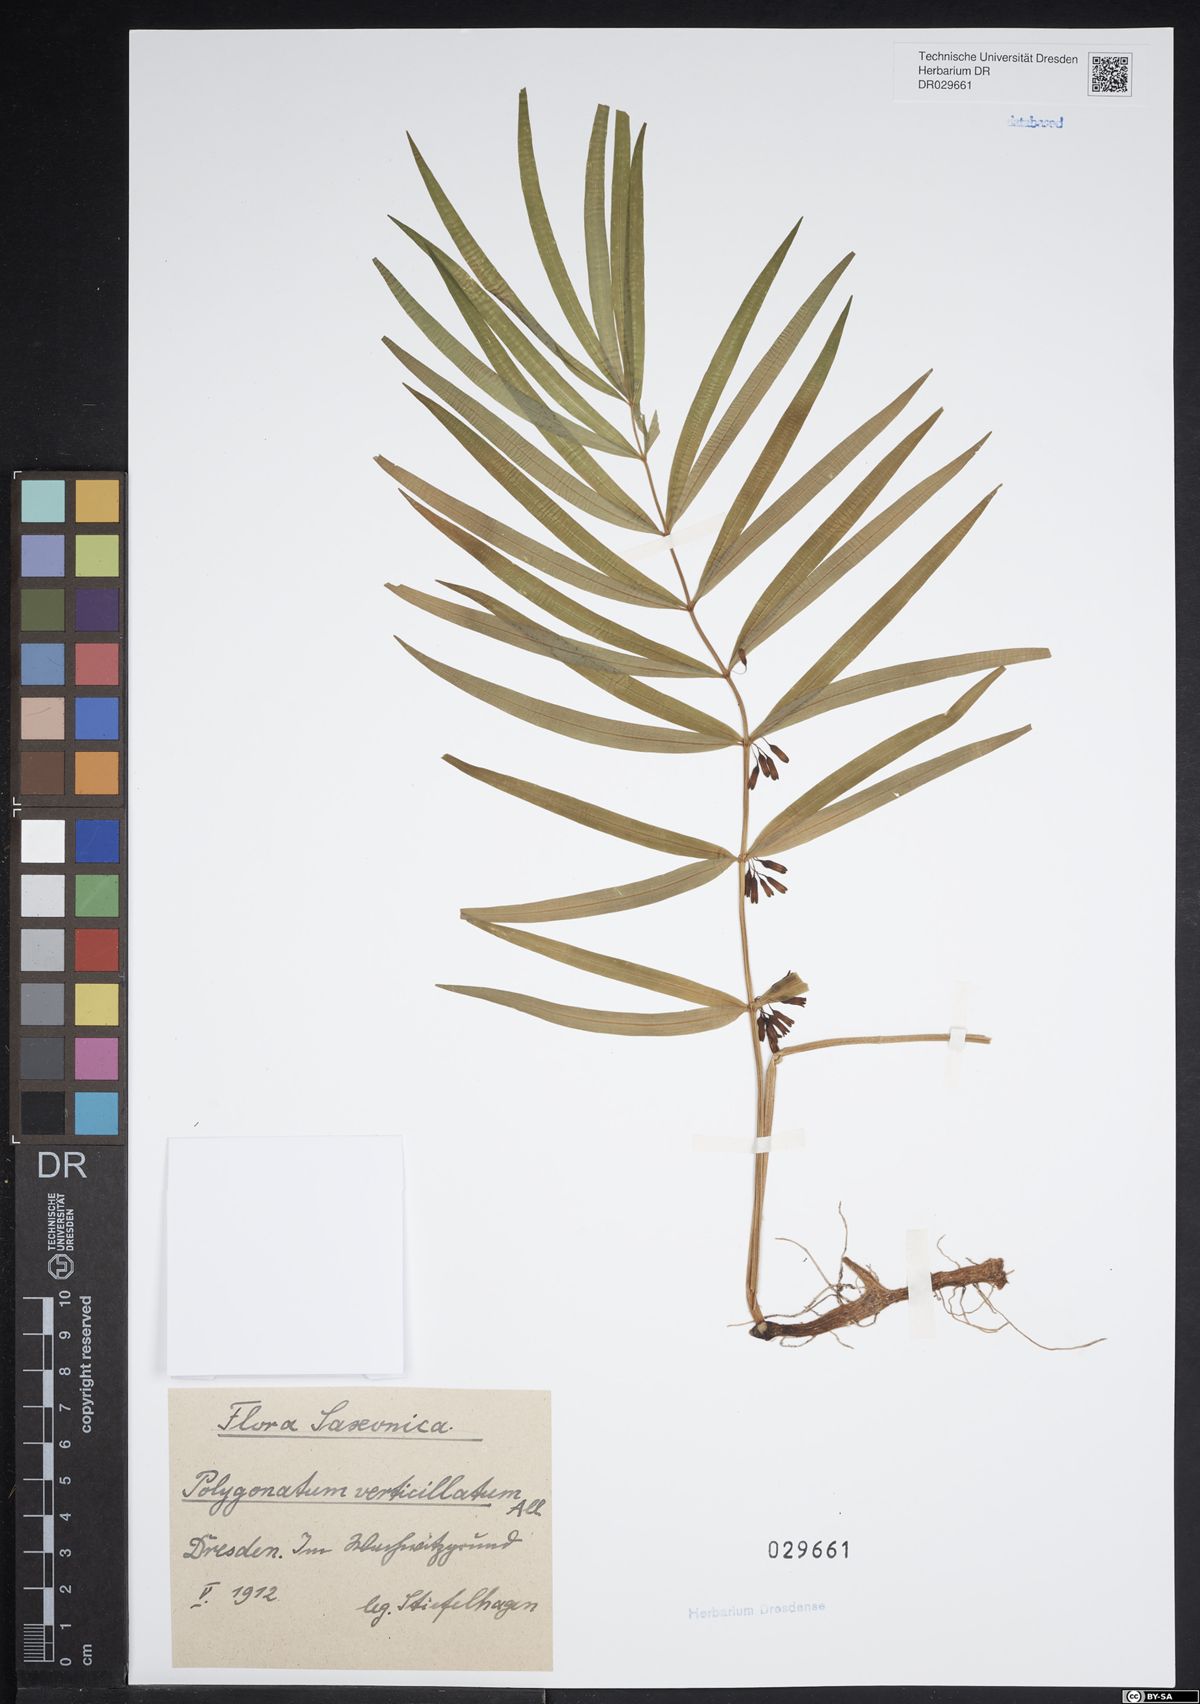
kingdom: Plantae
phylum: Tracheophyta
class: Liliopsida
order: Asparagales
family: Asparagaceae
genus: Polygonatum
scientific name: Polygonatum verticillatum
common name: Whorled solomon's-seal
